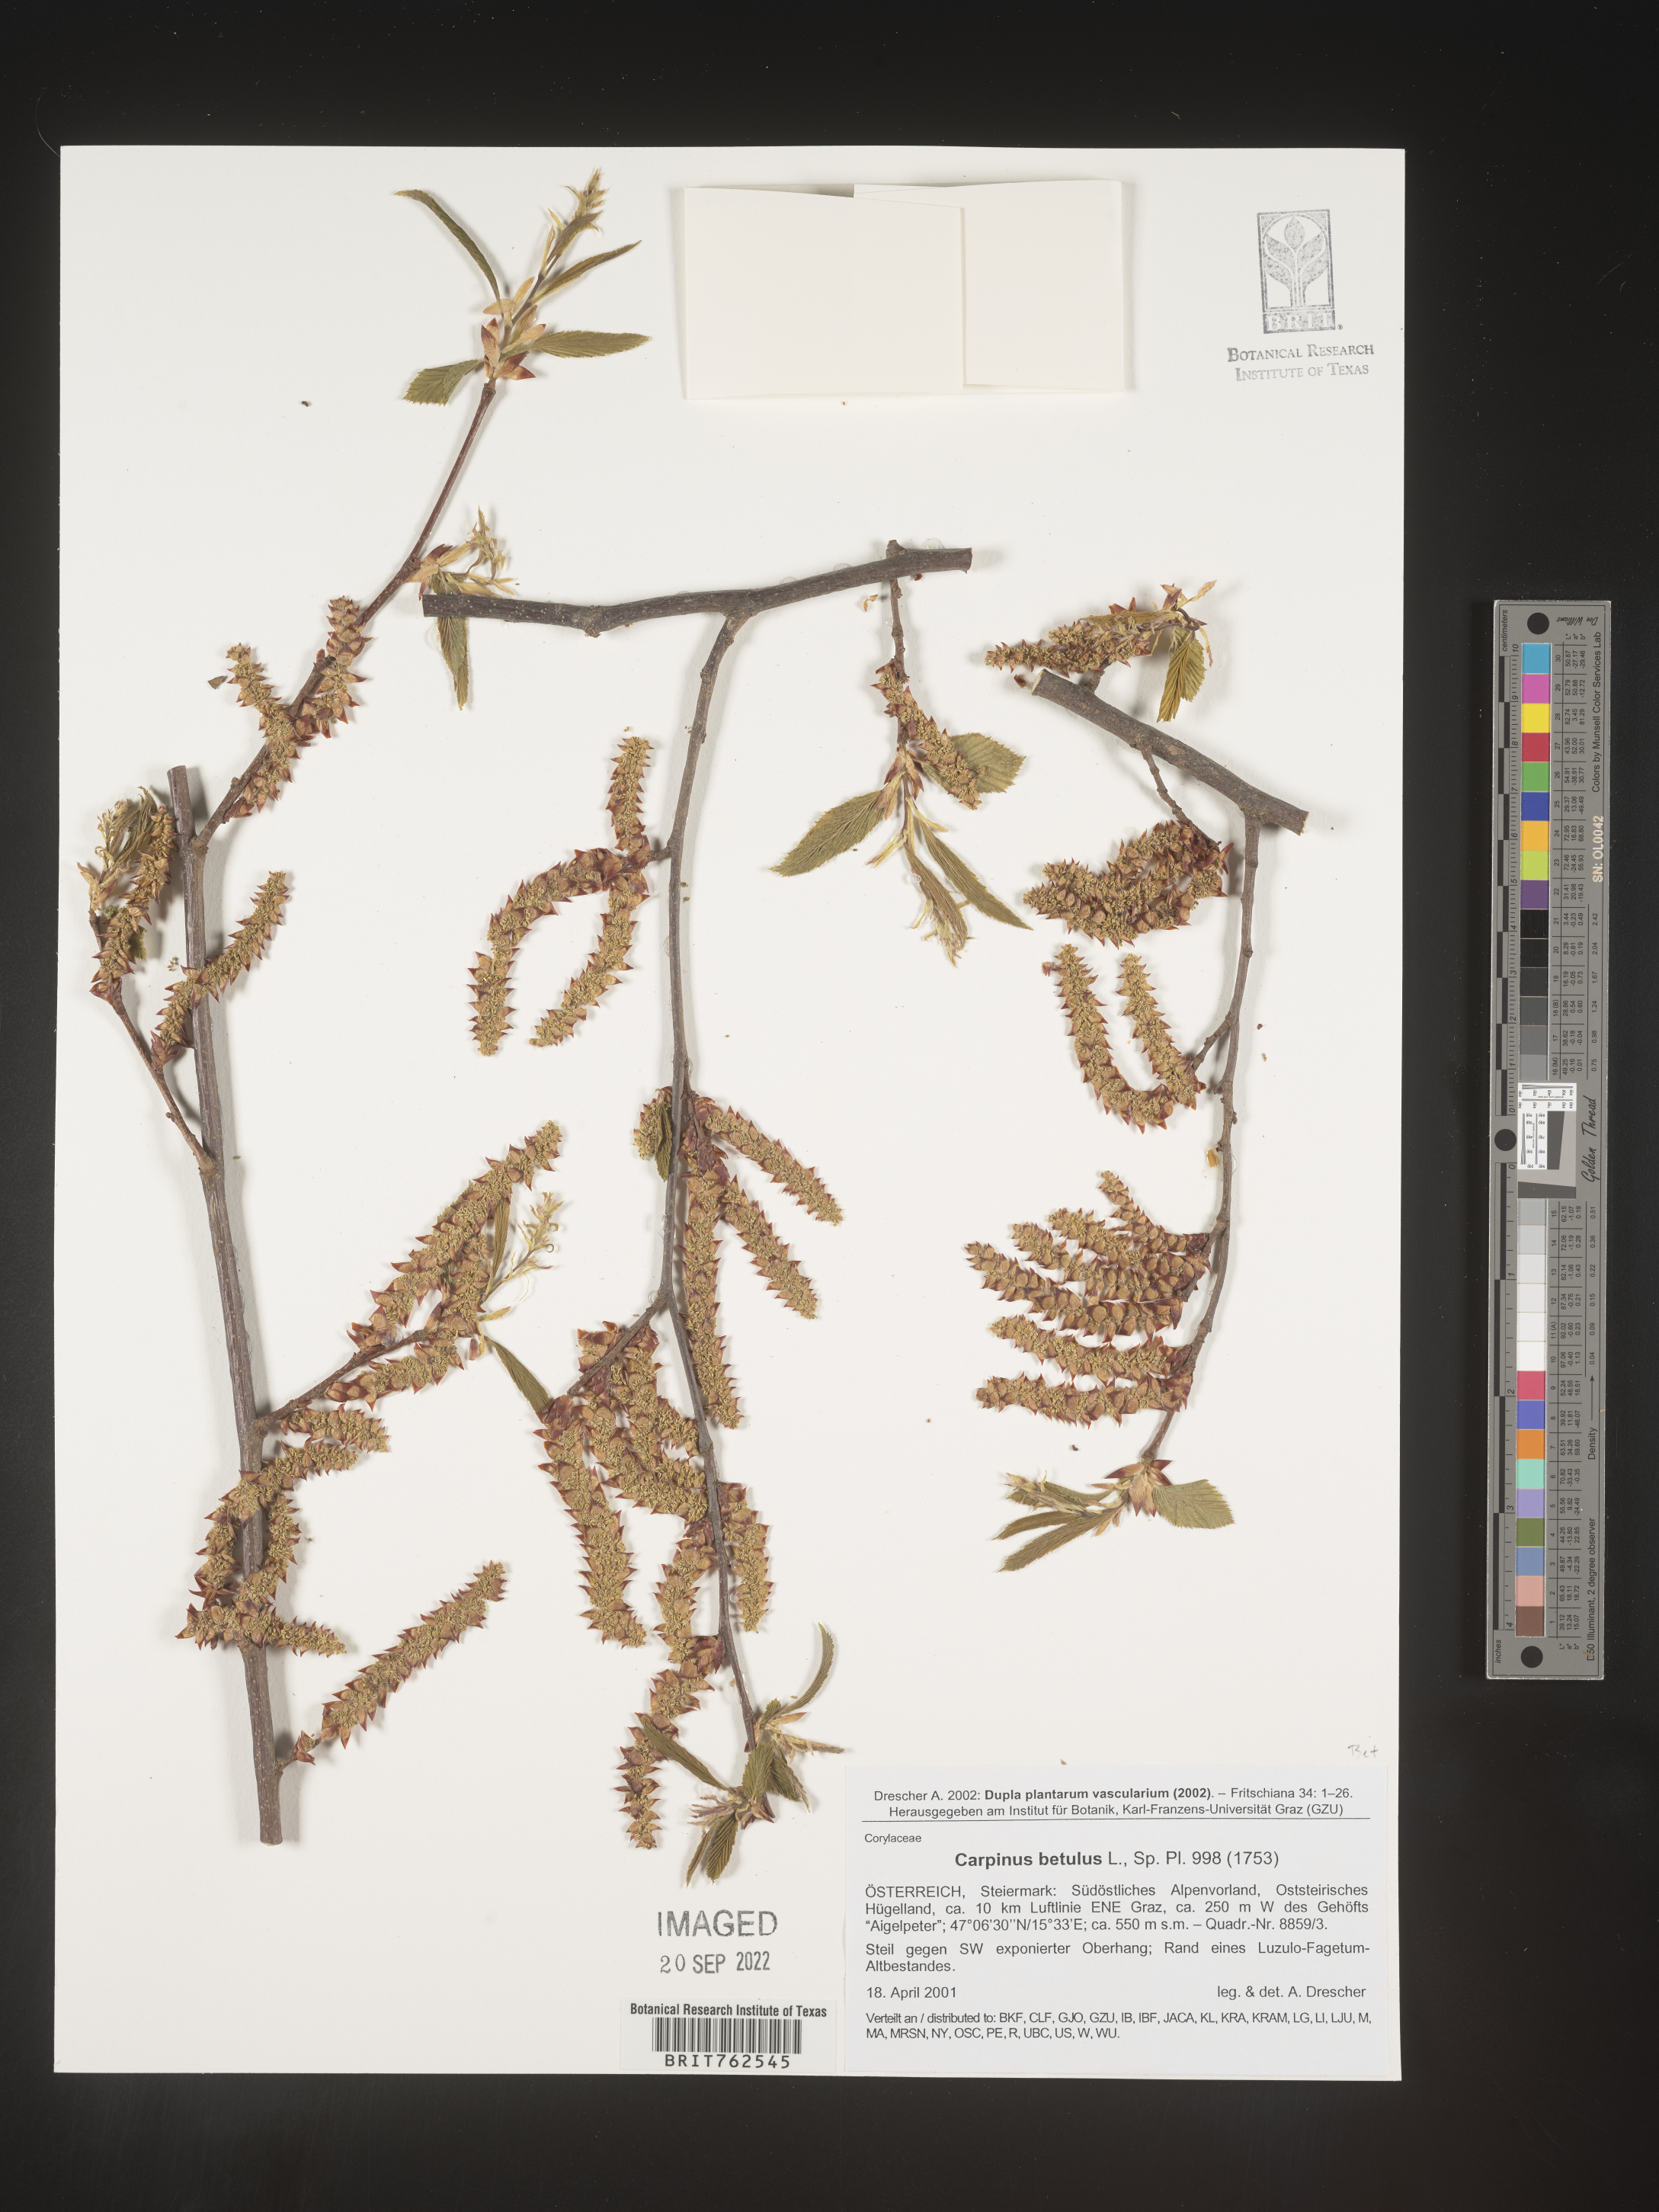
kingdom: Plantae
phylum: Tracheophyta
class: Magnoliopsida
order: Fagales
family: Betulaceae
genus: Carpinus
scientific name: Carpinus
